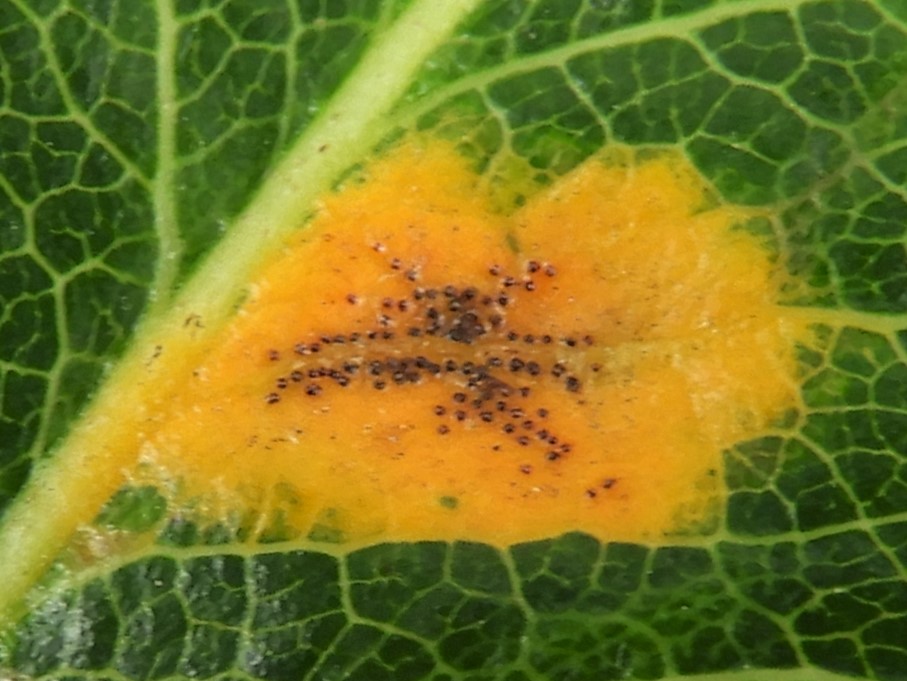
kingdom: Fungi
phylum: Basidiomycota
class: Pucciniomycetes
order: Pucciniales
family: Gymnosporangiaceae
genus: Gymnosporangium
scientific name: Gymnosporangium sabinae
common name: pæregitter-bævrerust
